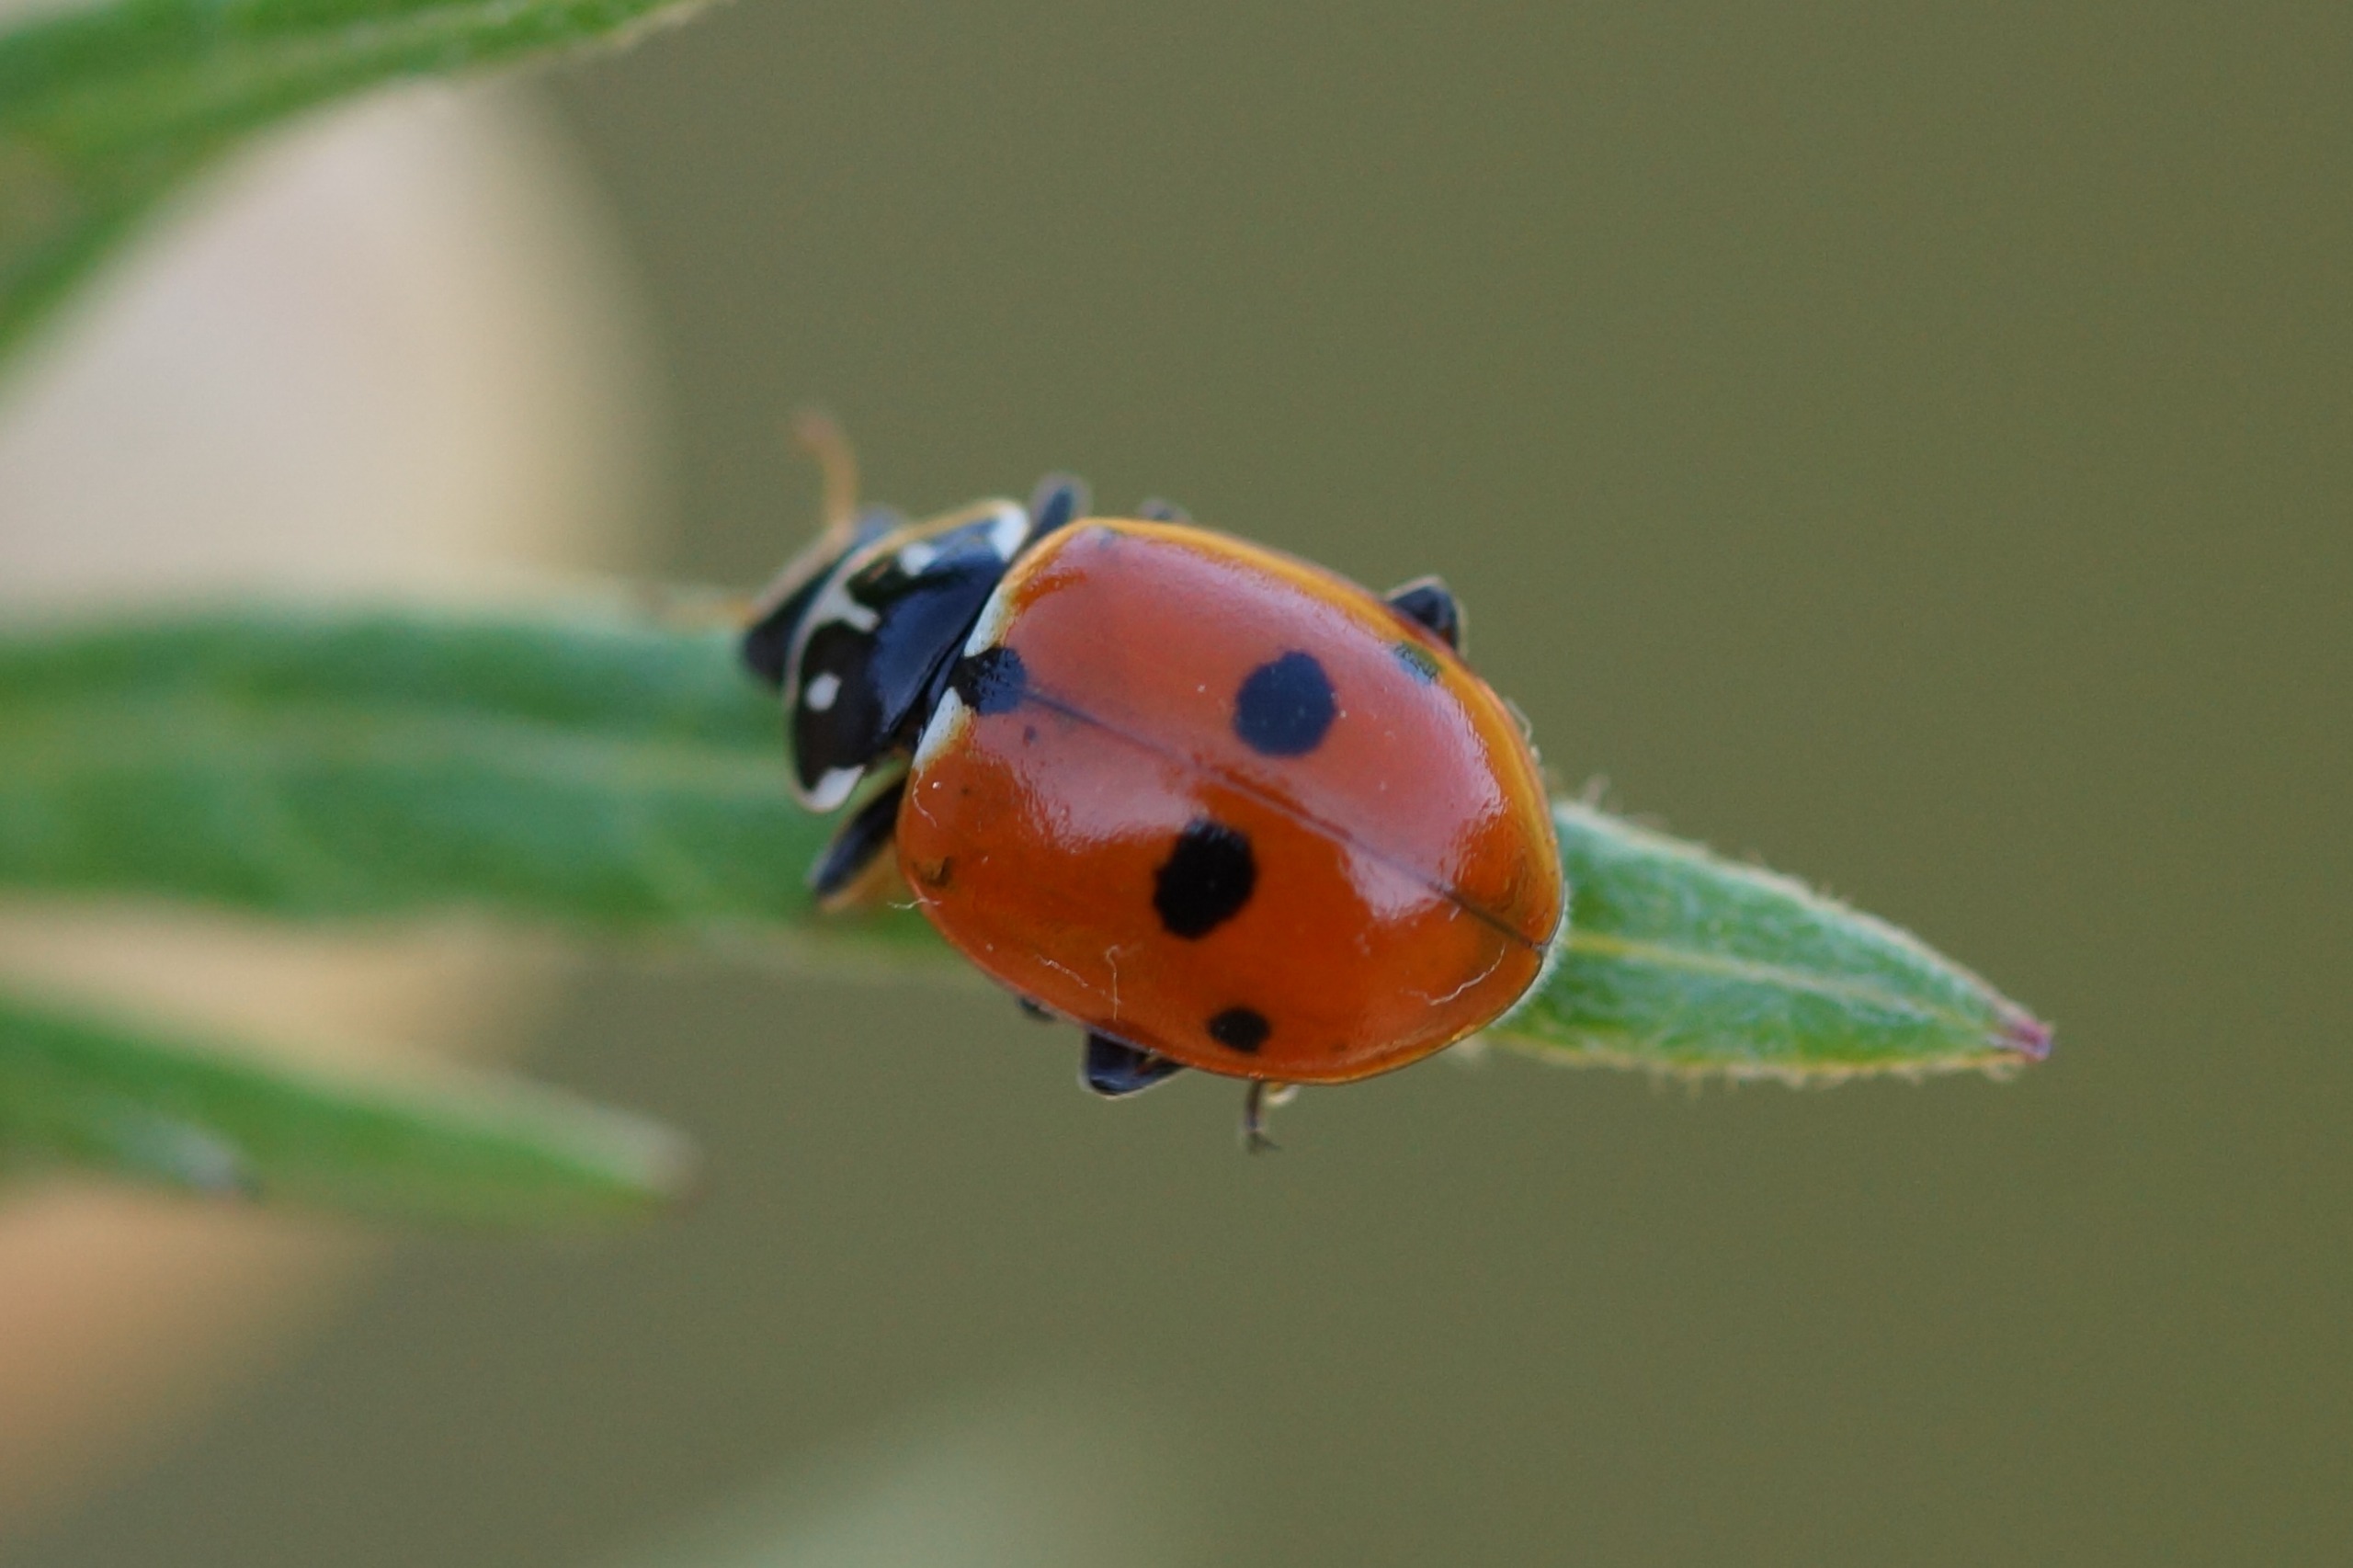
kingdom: Animalia
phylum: Arthropoda
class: Insecta
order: Coleoptera
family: Coccinellidae
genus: Hippodamia
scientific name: Hippodamia variegata
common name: Adonis' mariehøne
